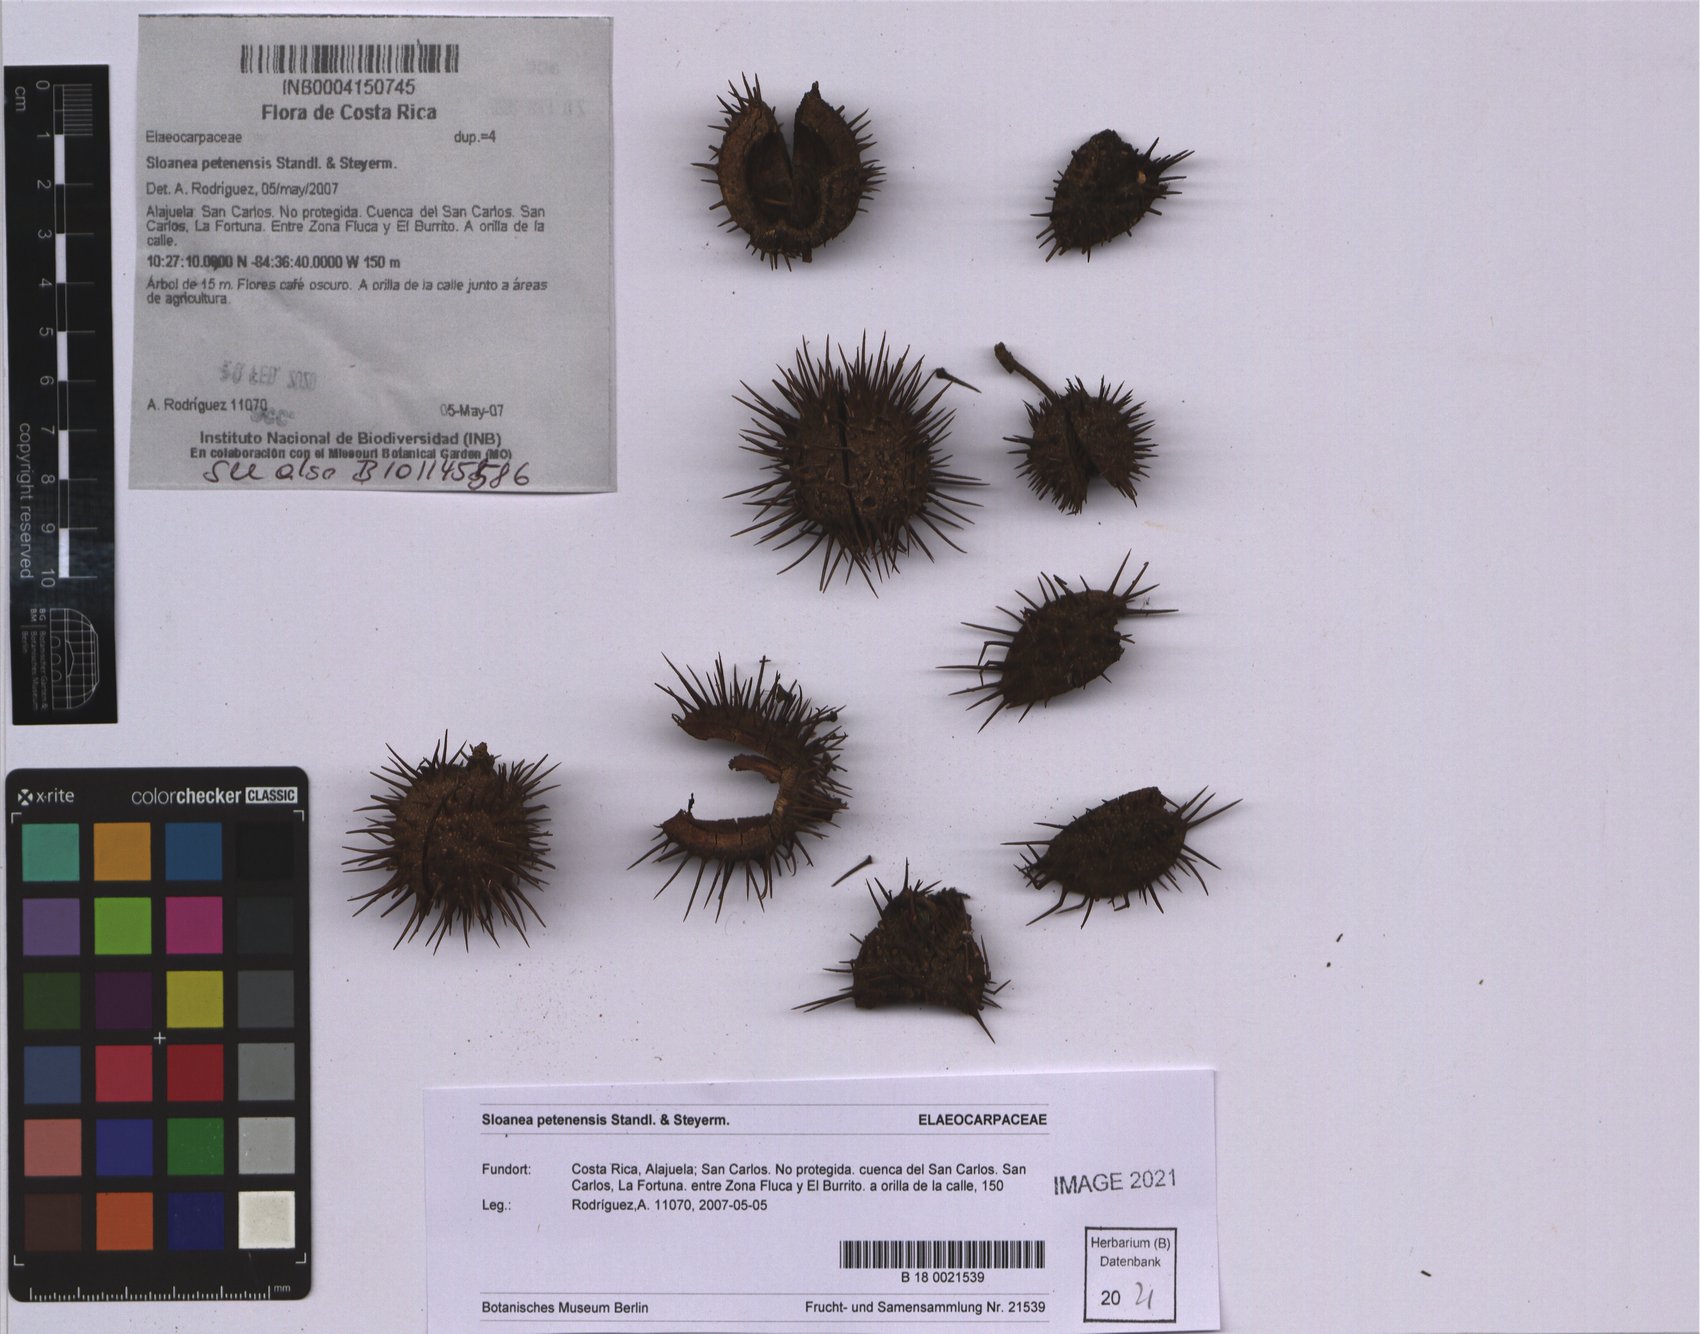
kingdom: Plantae
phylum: Tracheophyta
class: Magnoliopsida
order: Oxalidales
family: Elaeocarpaceae
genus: Sloanea
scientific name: Sloanea petenensis
